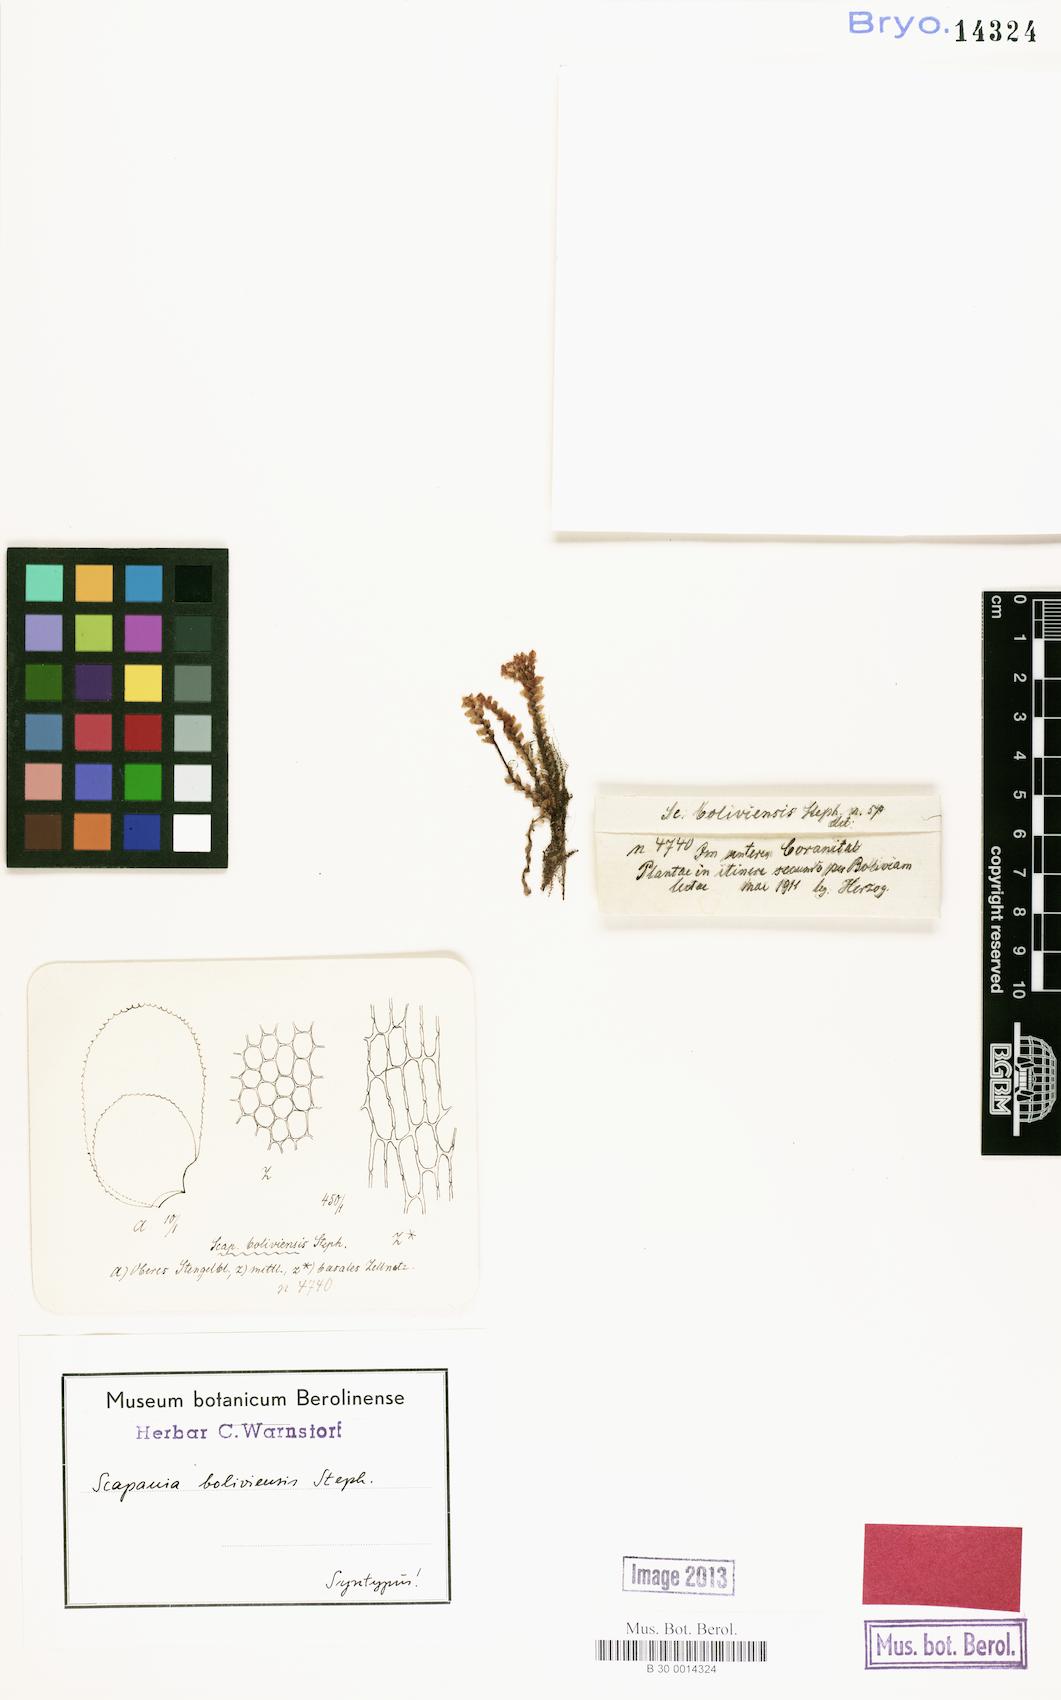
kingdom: Plantae
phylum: Marchantiophyta
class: Jungermanniopsida
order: Jungermanniales
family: Scapaniaceae
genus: Scapania
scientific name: Scapania portoricensis
